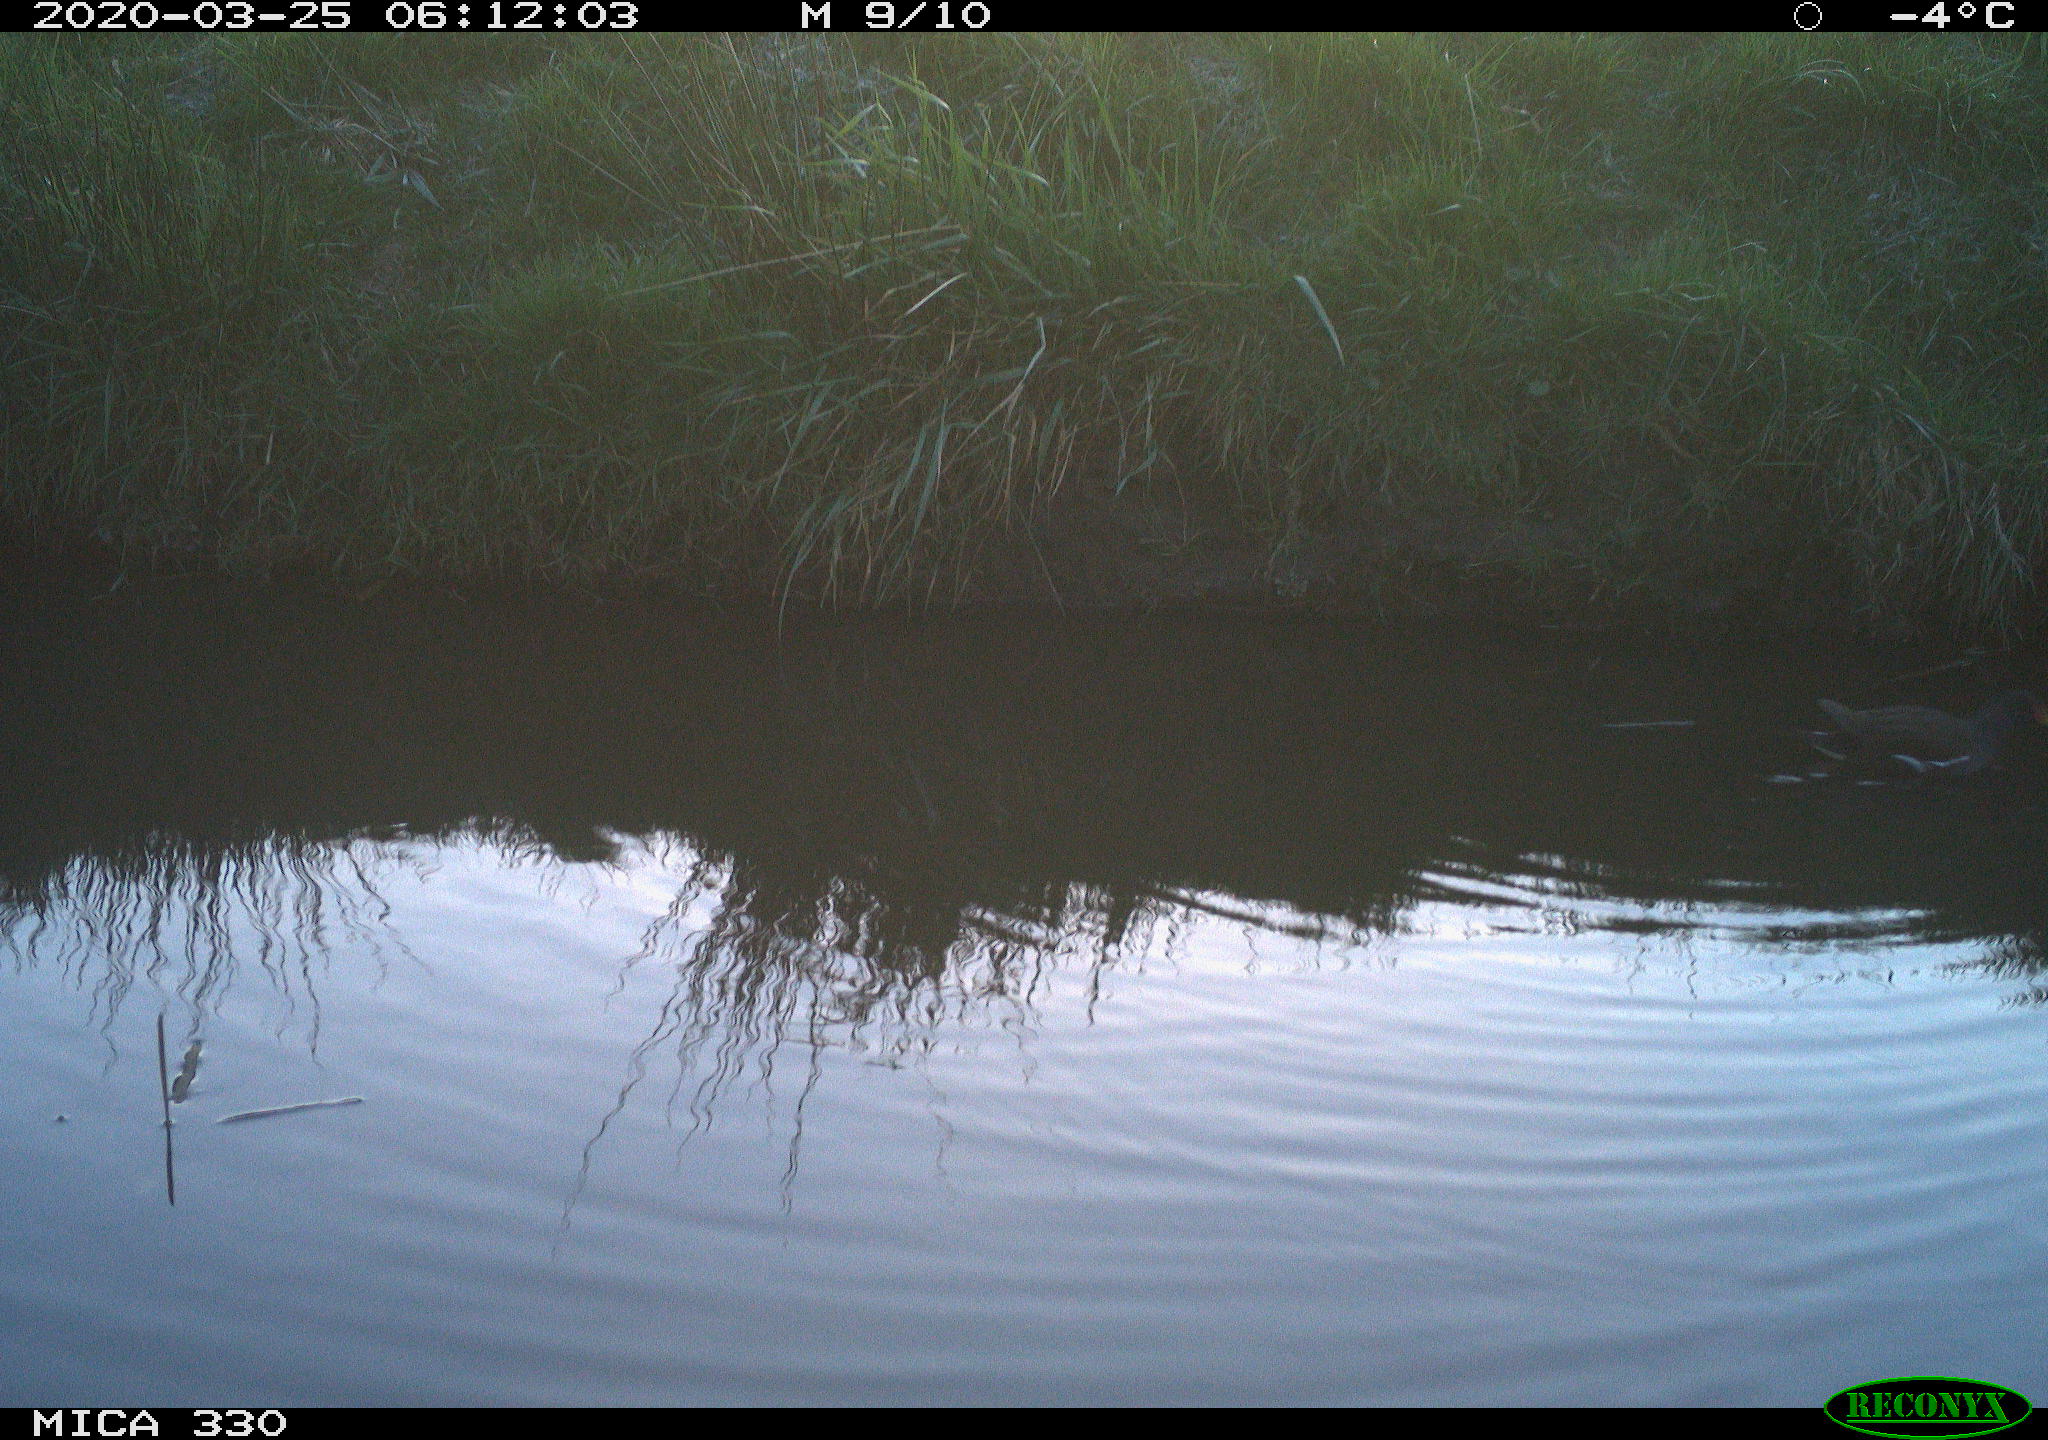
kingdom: Animalia
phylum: Chordata
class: Aves
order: Gruiformes
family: Rallidae
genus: Gallinula
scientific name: Gallinula chloropus
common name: Common moorhen
